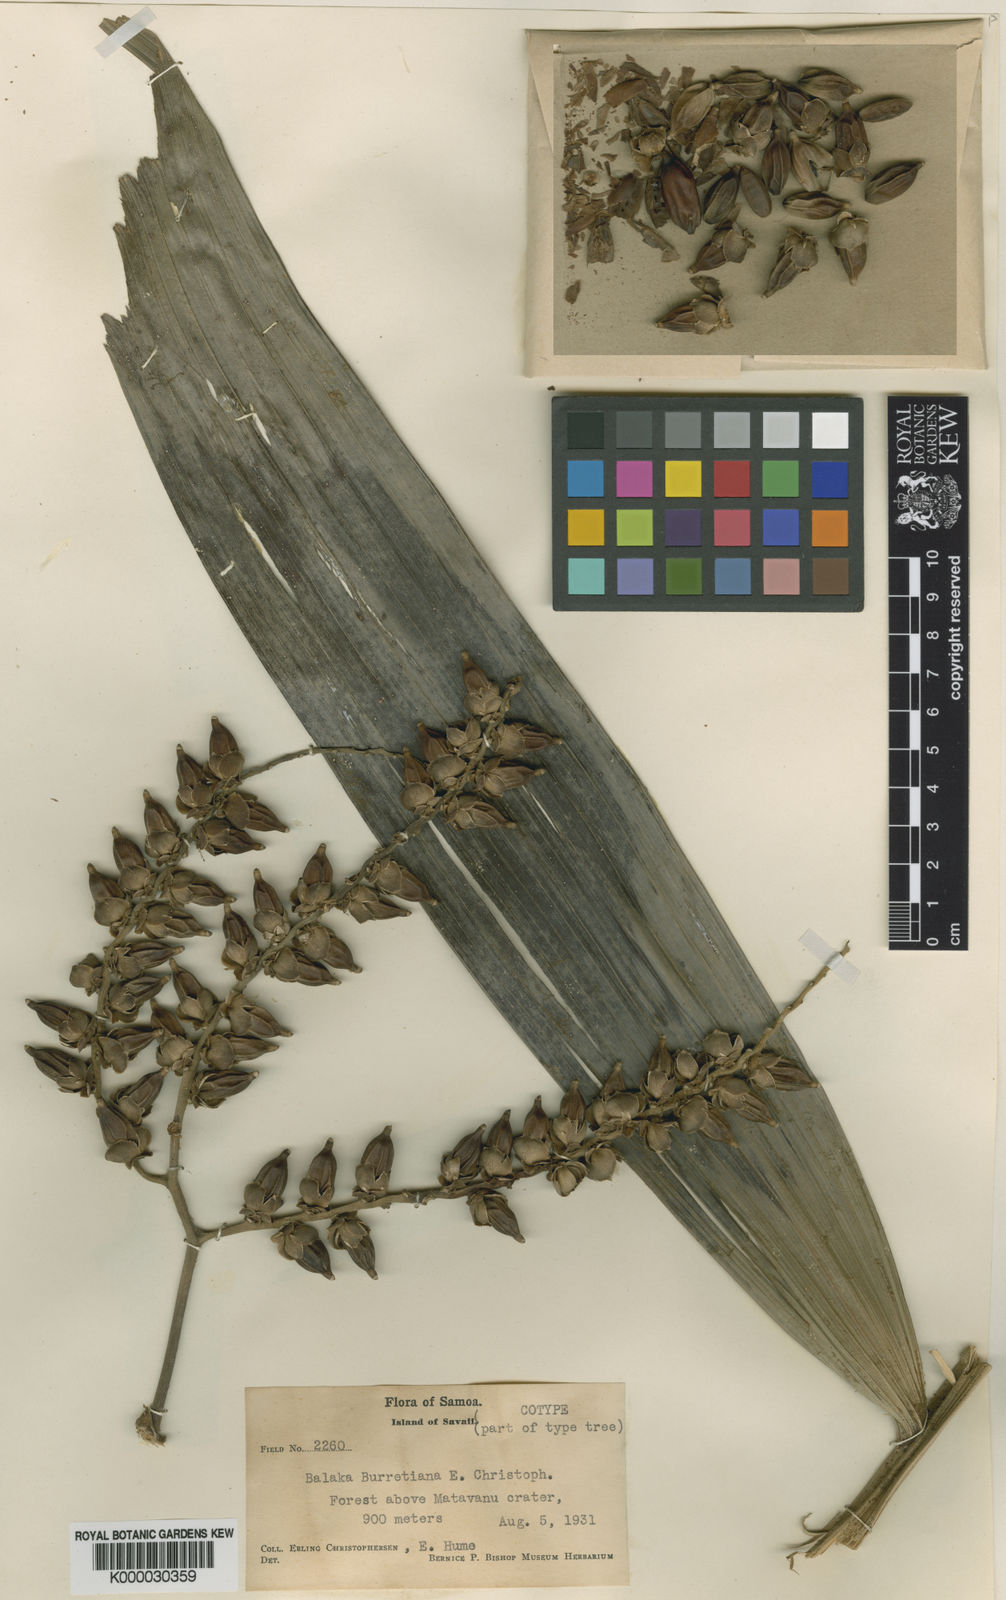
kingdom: Plantae
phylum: Tracheophyta
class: Liliopsida
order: Arecales
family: Arecaceae
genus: Balaka
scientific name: Balaka samoensis
